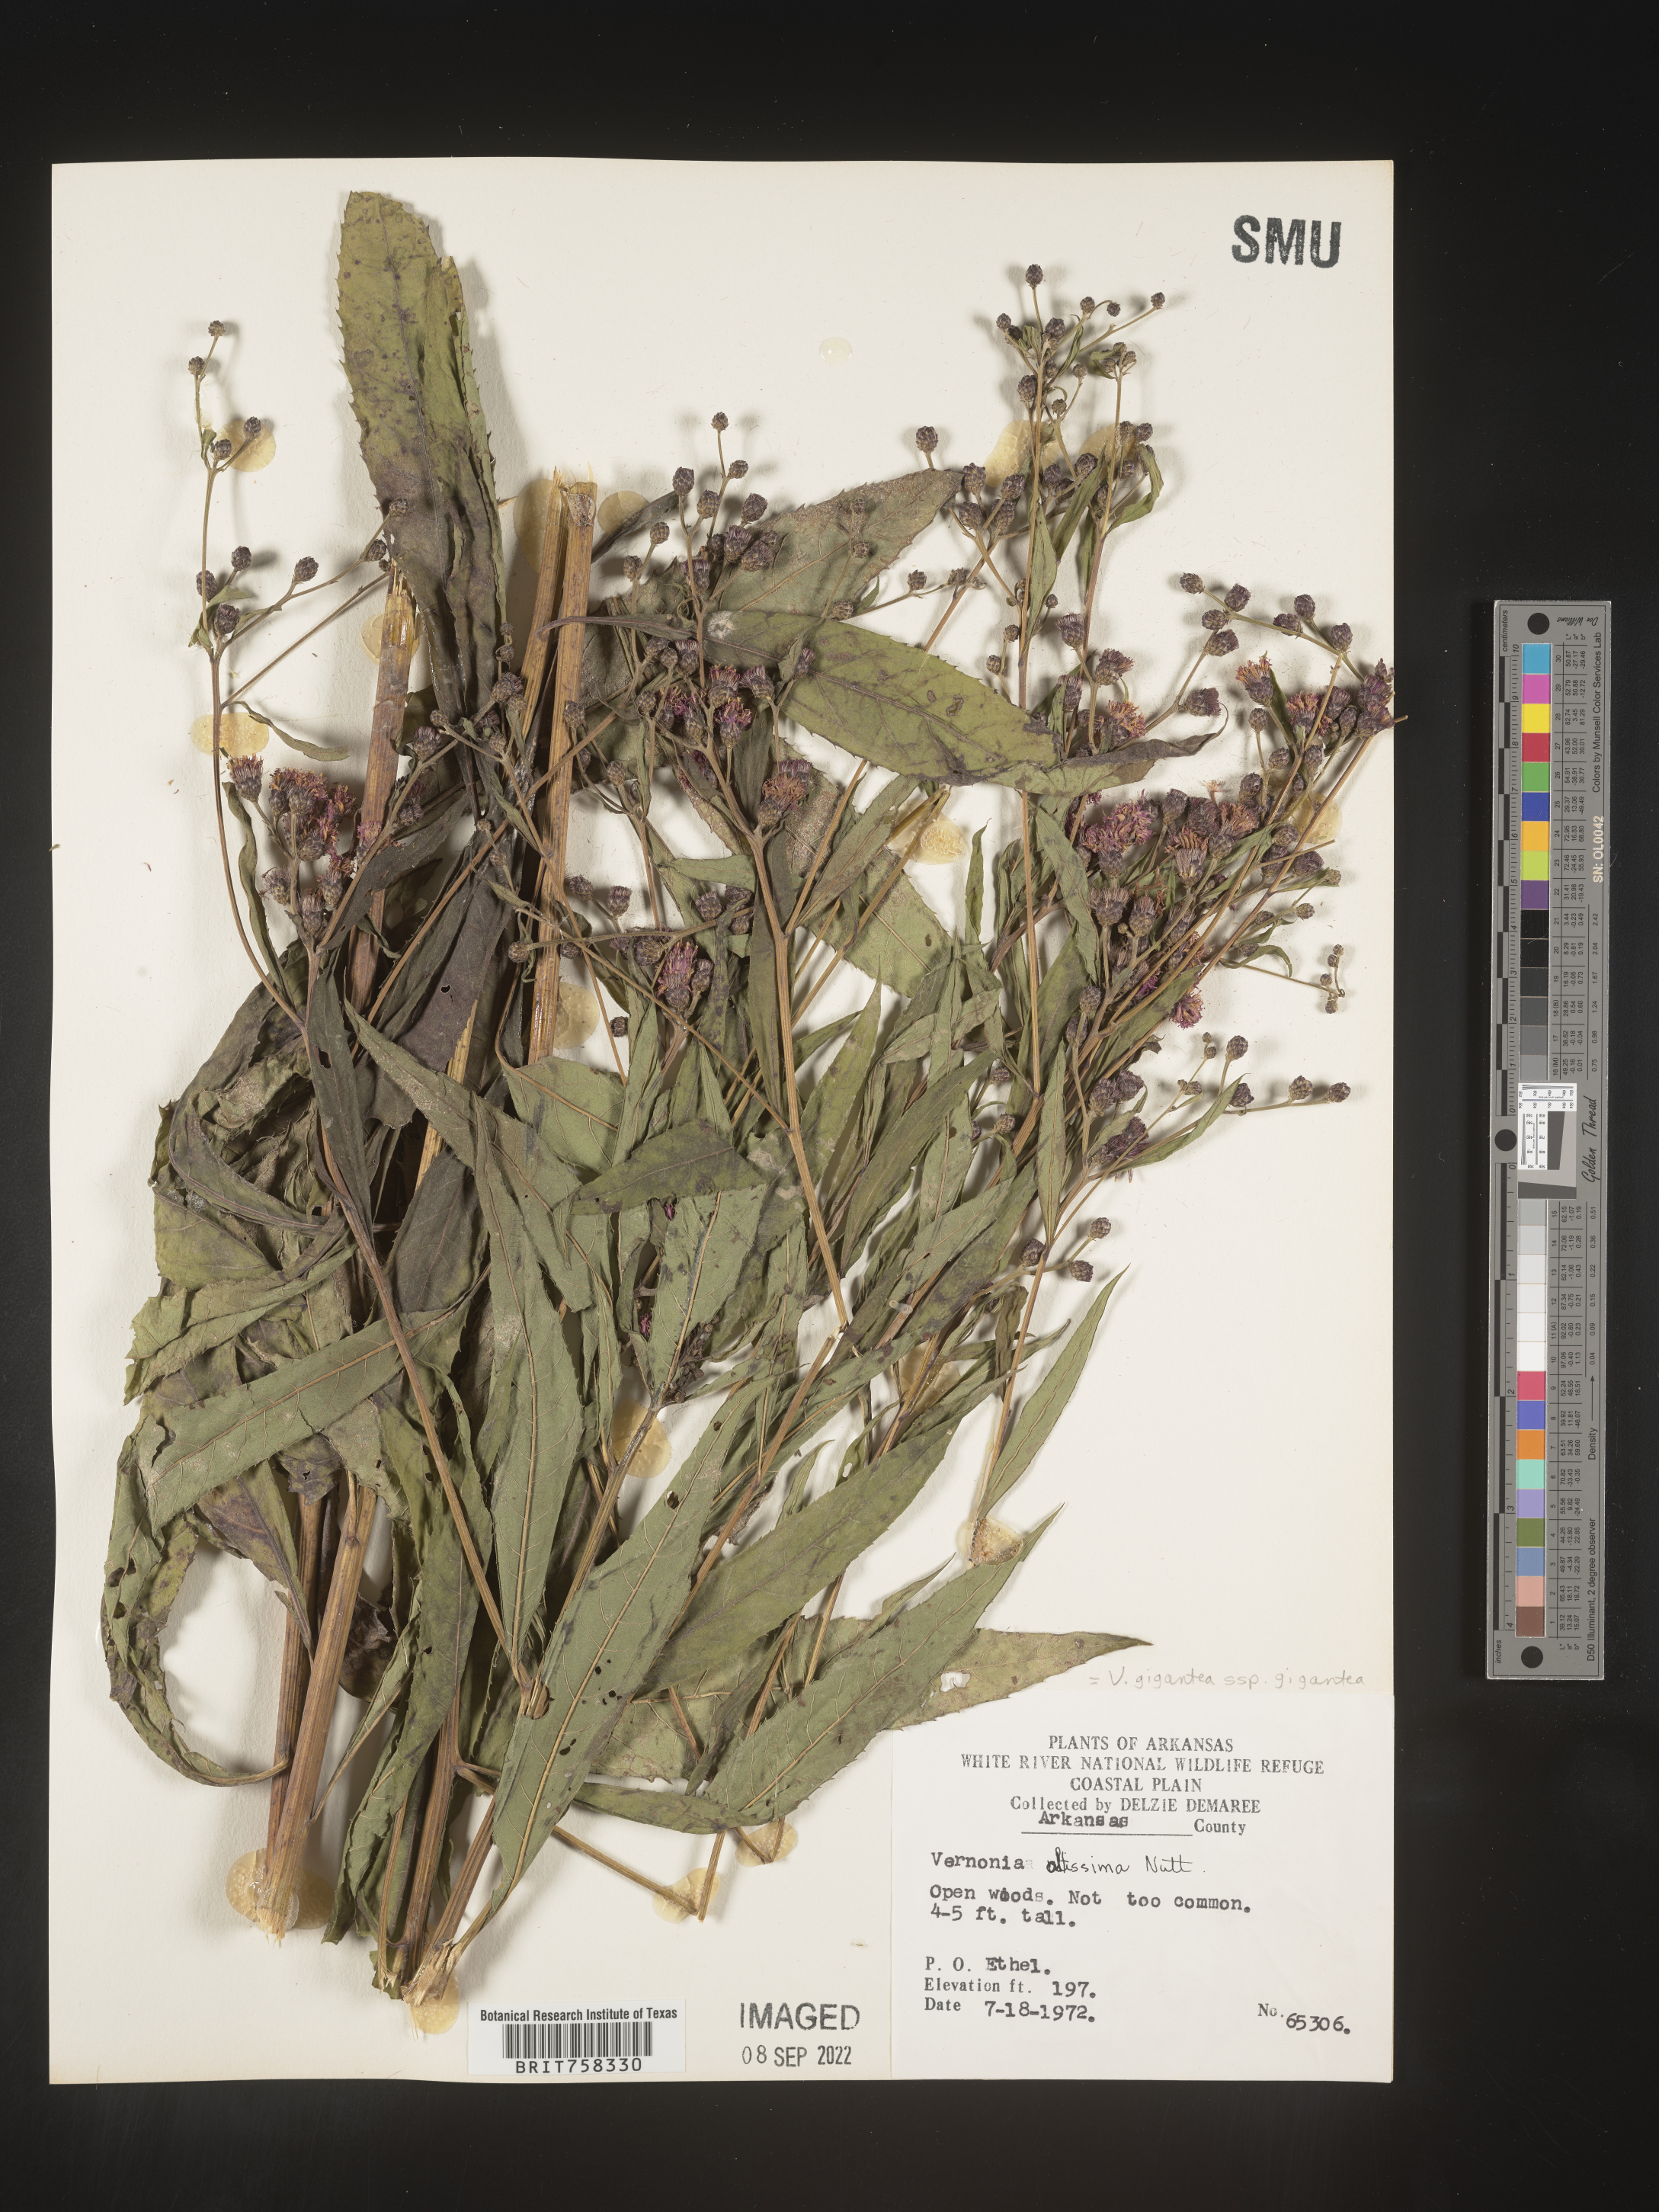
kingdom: Plantae
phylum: Tracheophyta
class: Magnoliopsida
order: Asterales
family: Asteraceae
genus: Vernonia
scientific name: Vernonia gigantea
